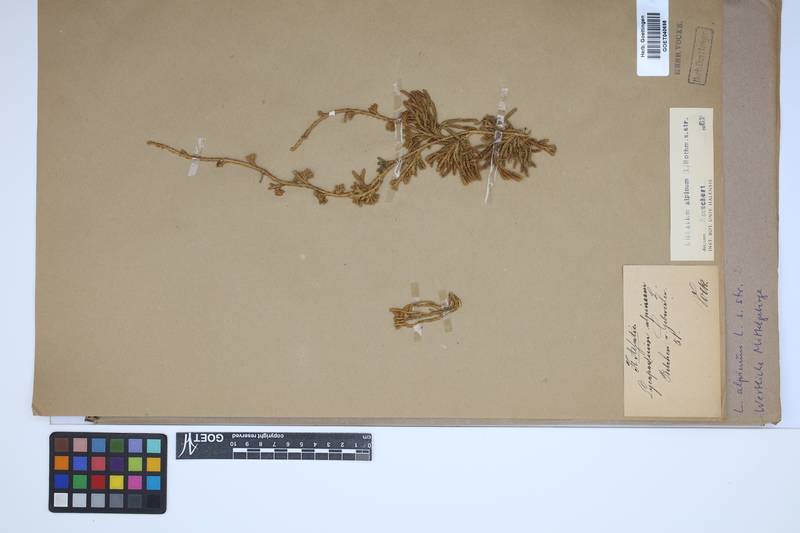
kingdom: Plantae
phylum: Tracheophyta
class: Lycopodiopsida
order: Lycopodiales
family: Lycopodiaceae
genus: Diphasiastrum
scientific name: Diphasiastrum alpinum
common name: Alpine clubmoss
